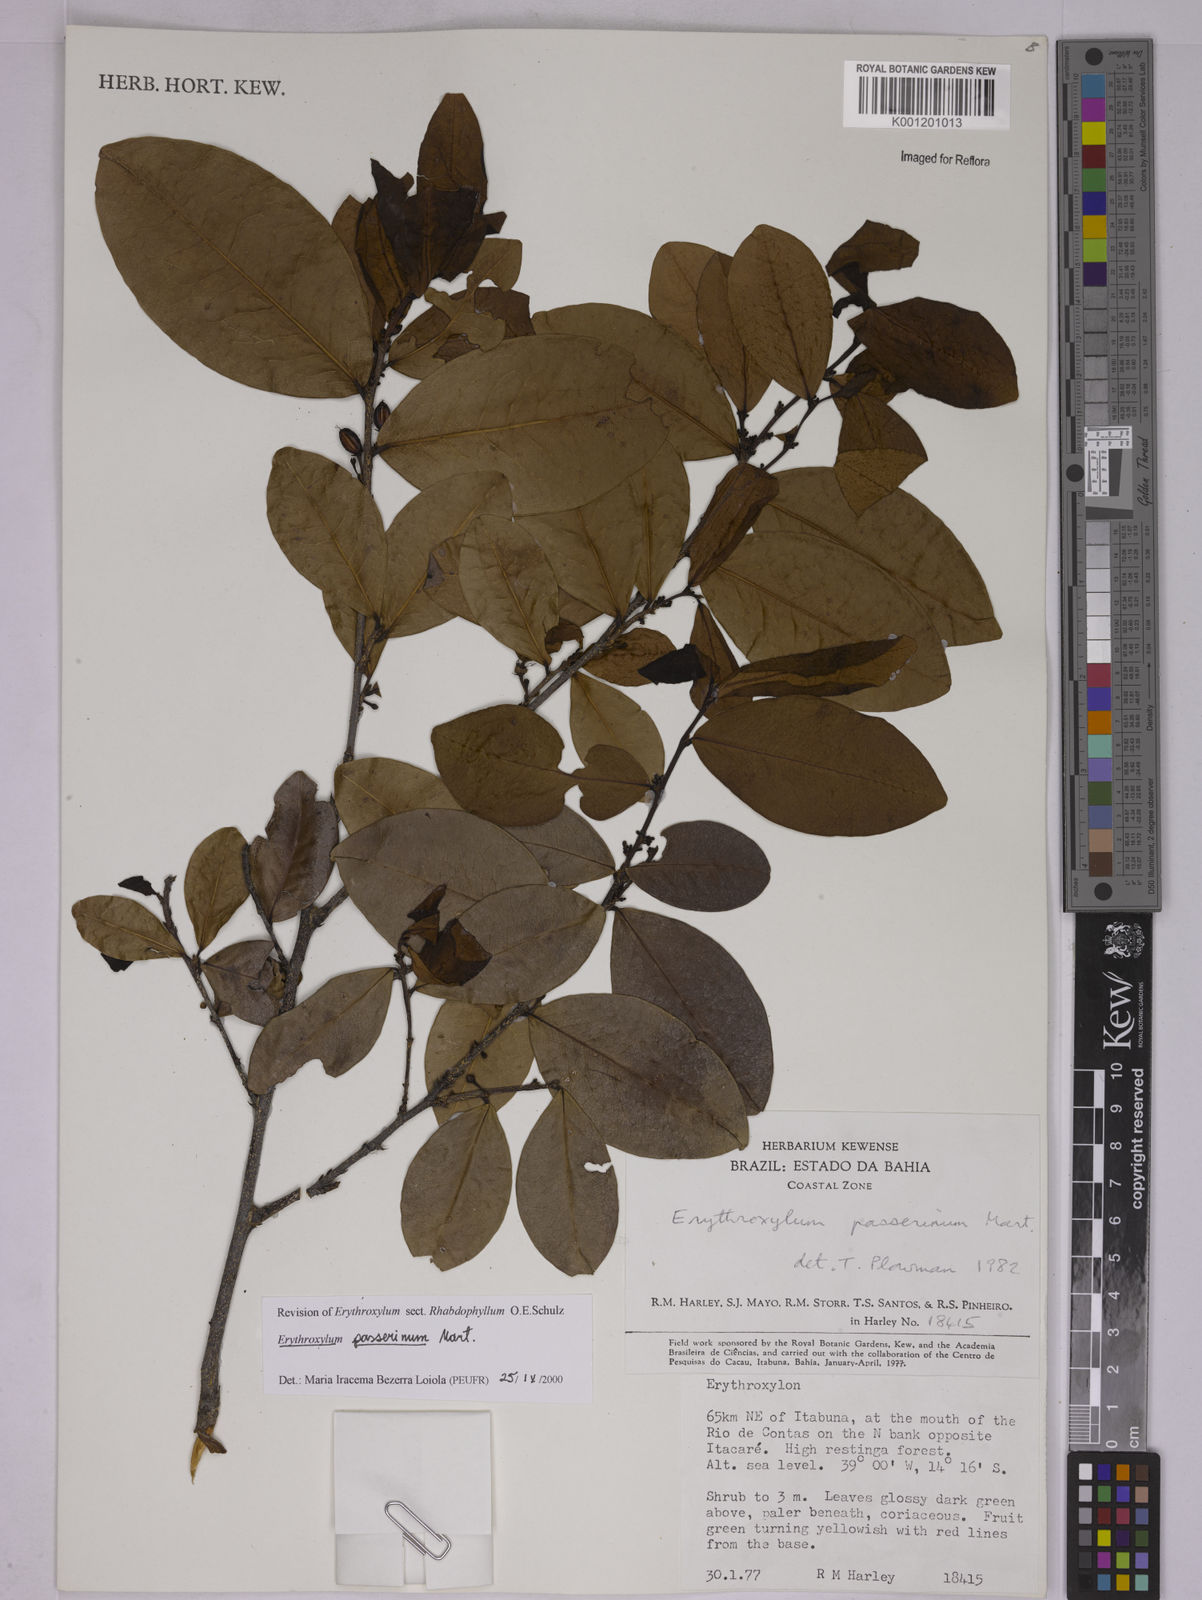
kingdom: Plantae
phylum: Tracheophyta
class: Magnoliopsida
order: Malpighiales
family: Erythroxylaceae
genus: Erythroxylum
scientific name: Erythroxylum passerinum
